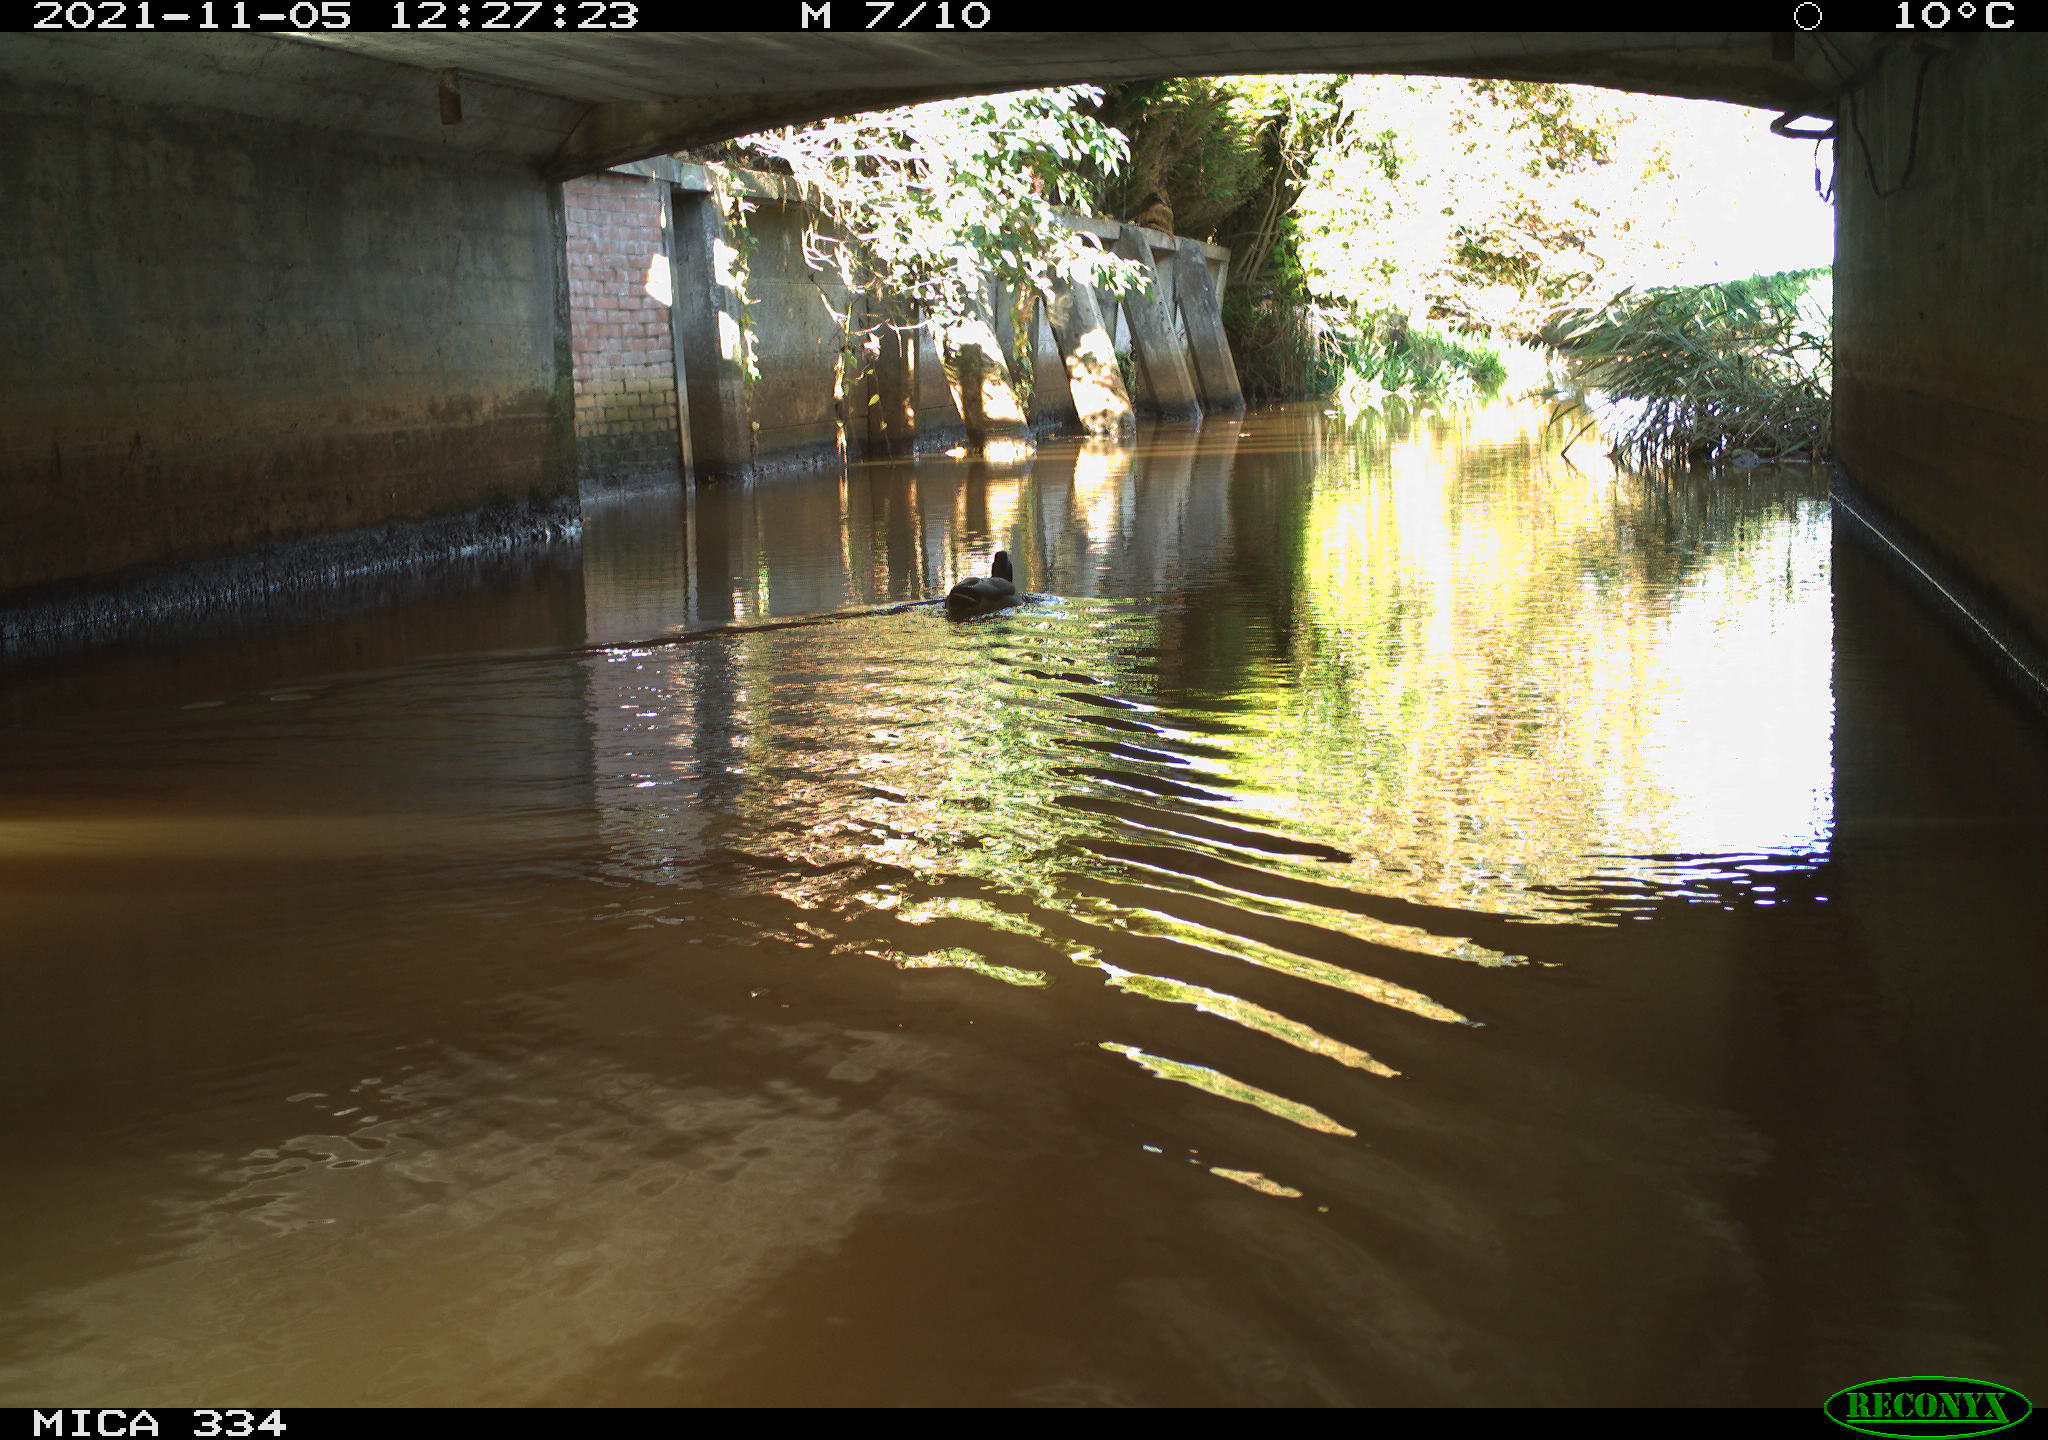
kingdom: Animalia
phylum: Chordata
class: Aves
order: Anseriformes
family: Anatidae
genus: Anas
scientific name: Anas platyrhynchos
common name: Mallard
